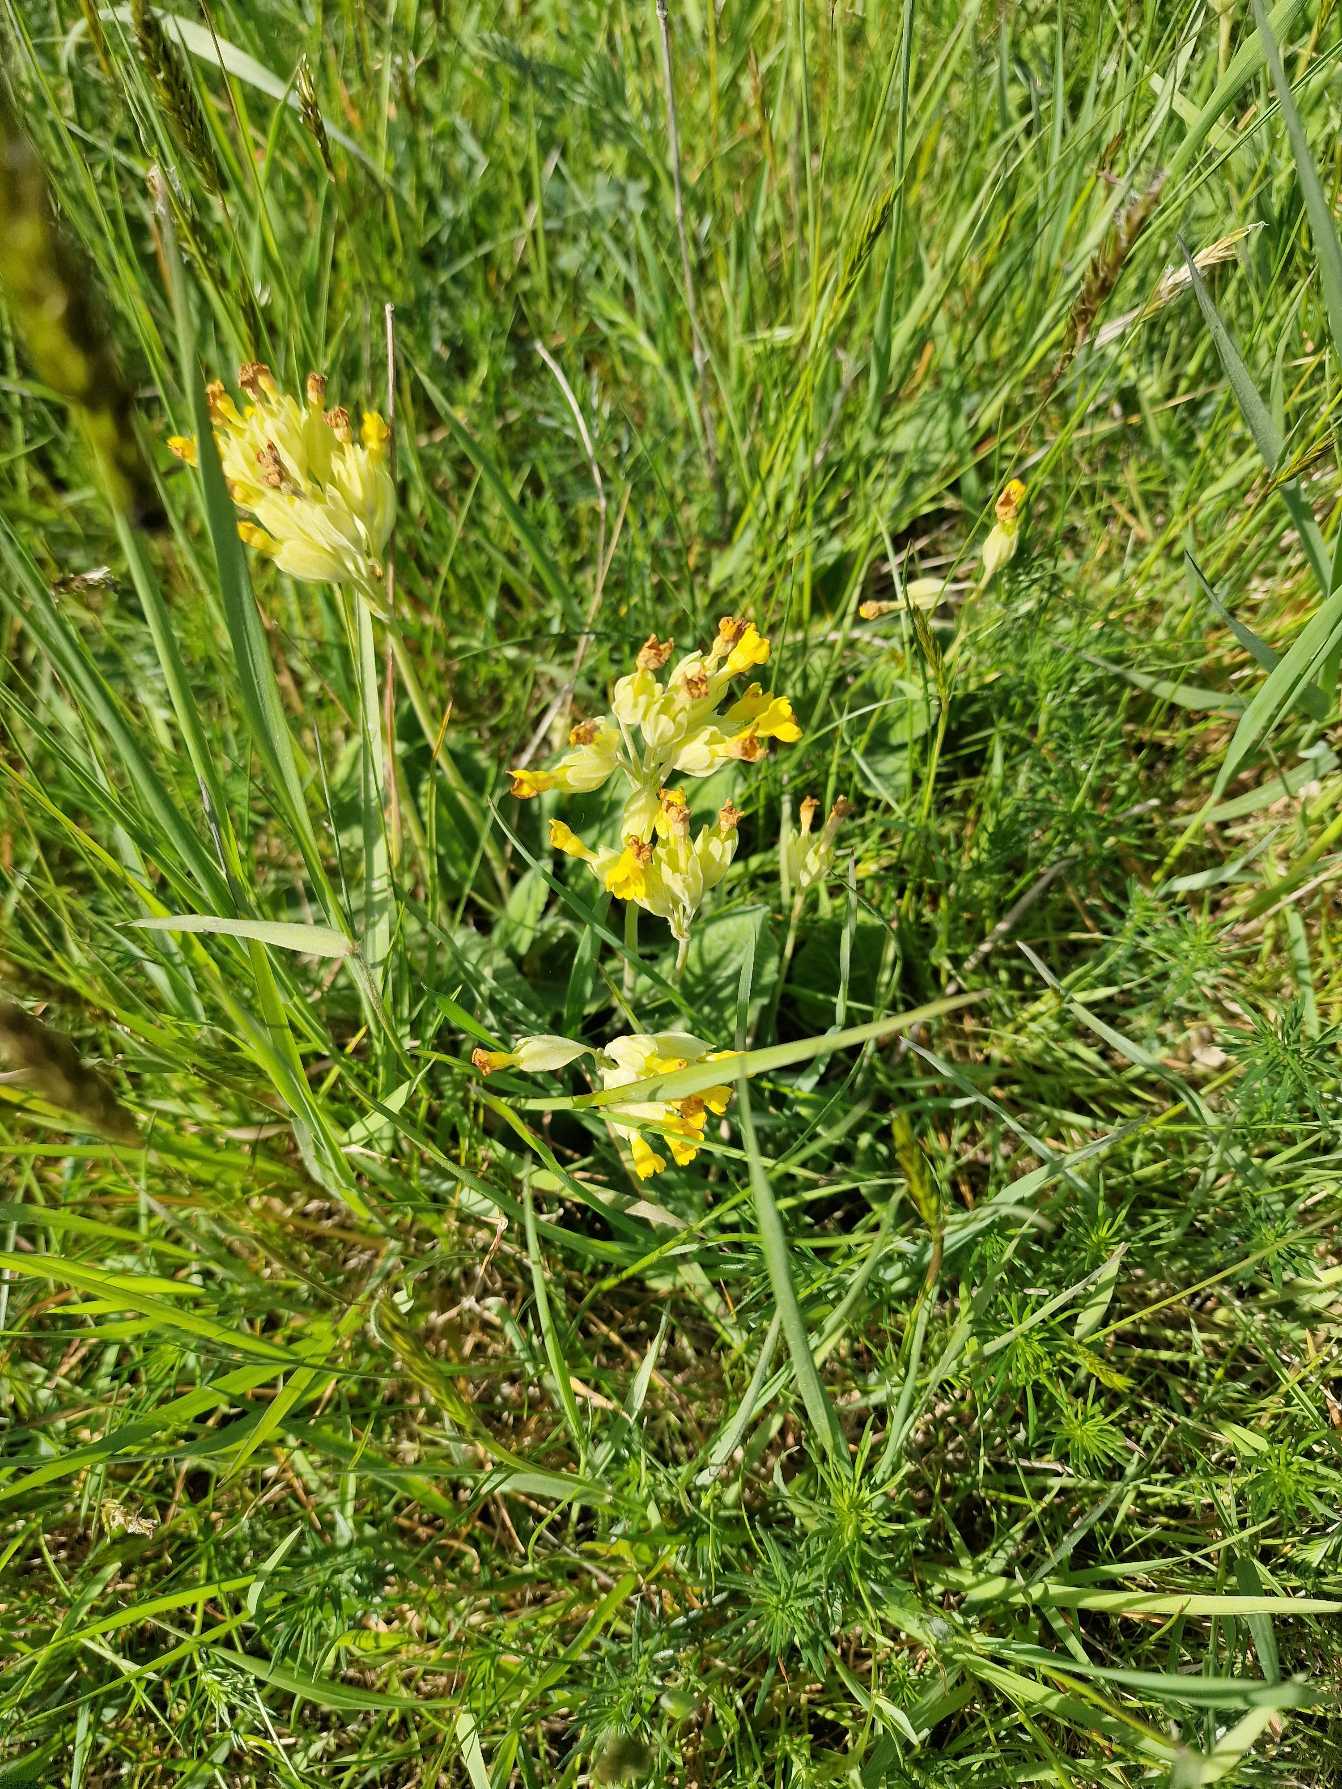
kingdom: Plantae
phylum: Tracheophyta
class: Magnoliopsida
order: Ericales
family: Primulaceae
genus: Primula
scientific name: Primula veris
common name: Hulkravet kodriver
